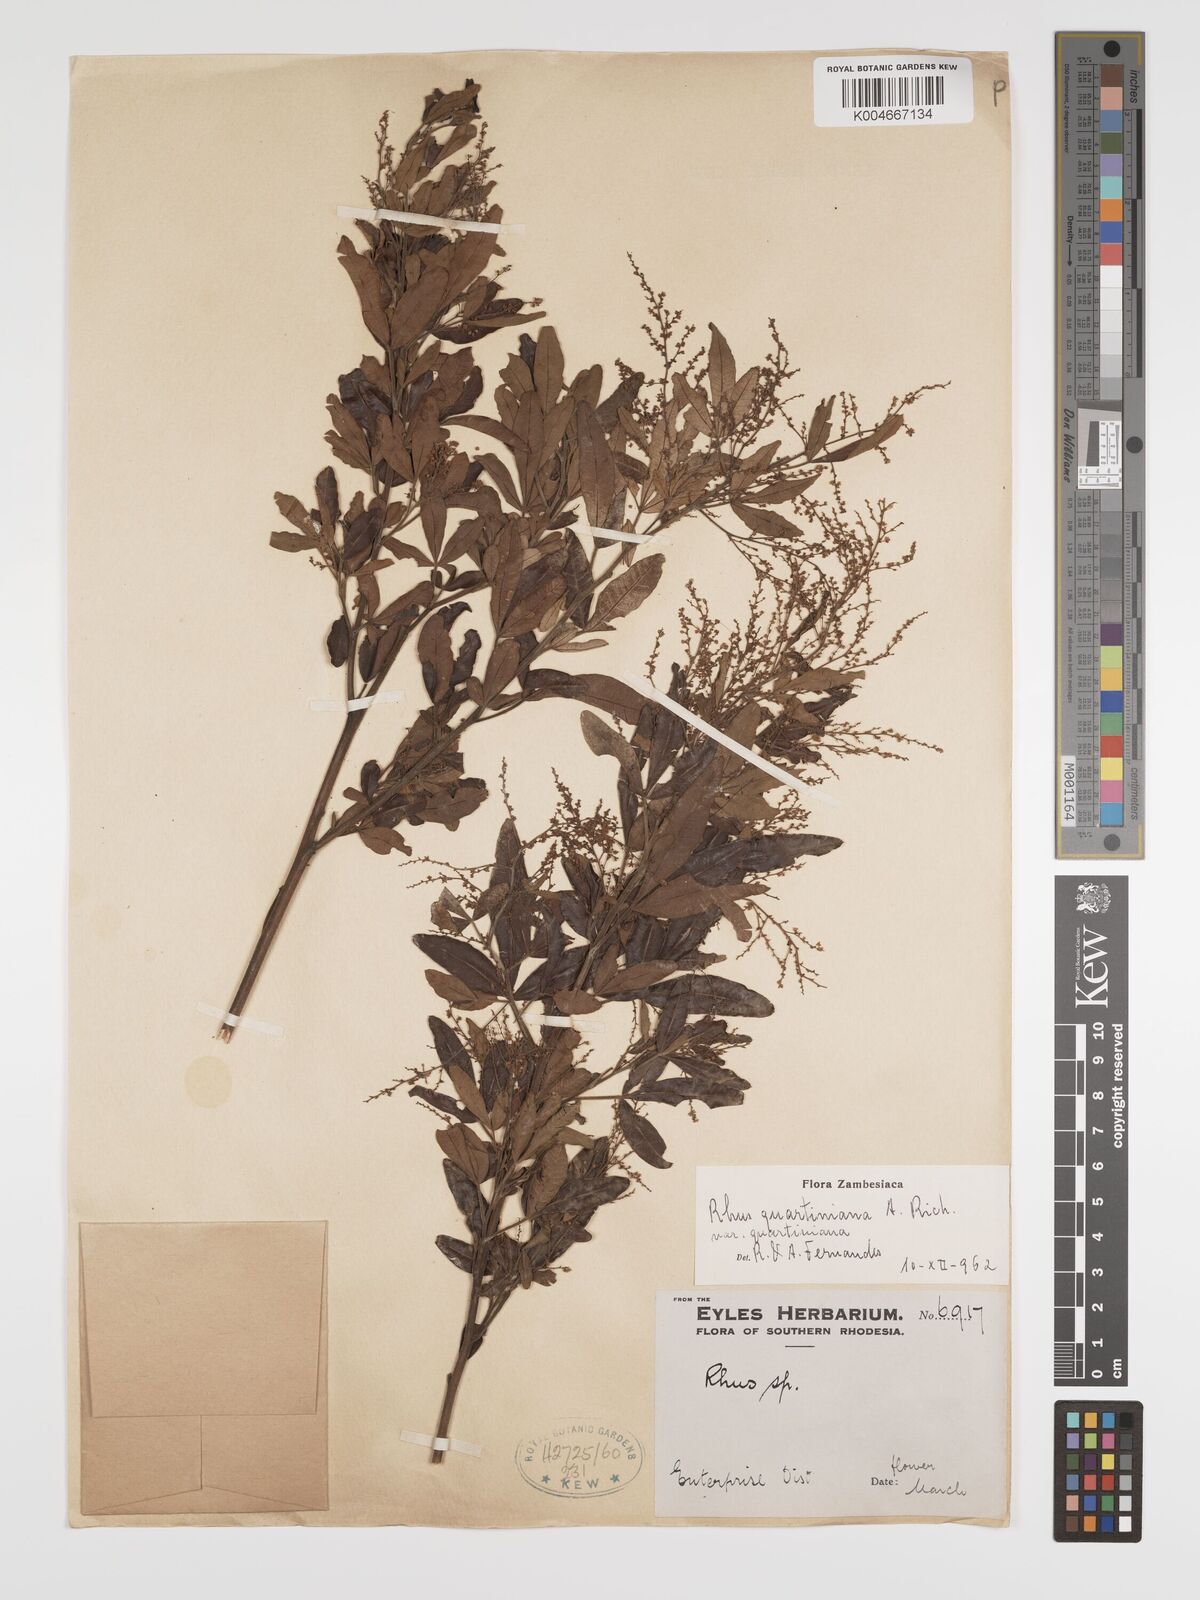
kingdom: Plantae
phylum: Tracheophyta
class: Magnoliopsida
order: Sapindales
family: Anacardiaceae
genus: Searsia
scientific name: Searsia quartiniana
